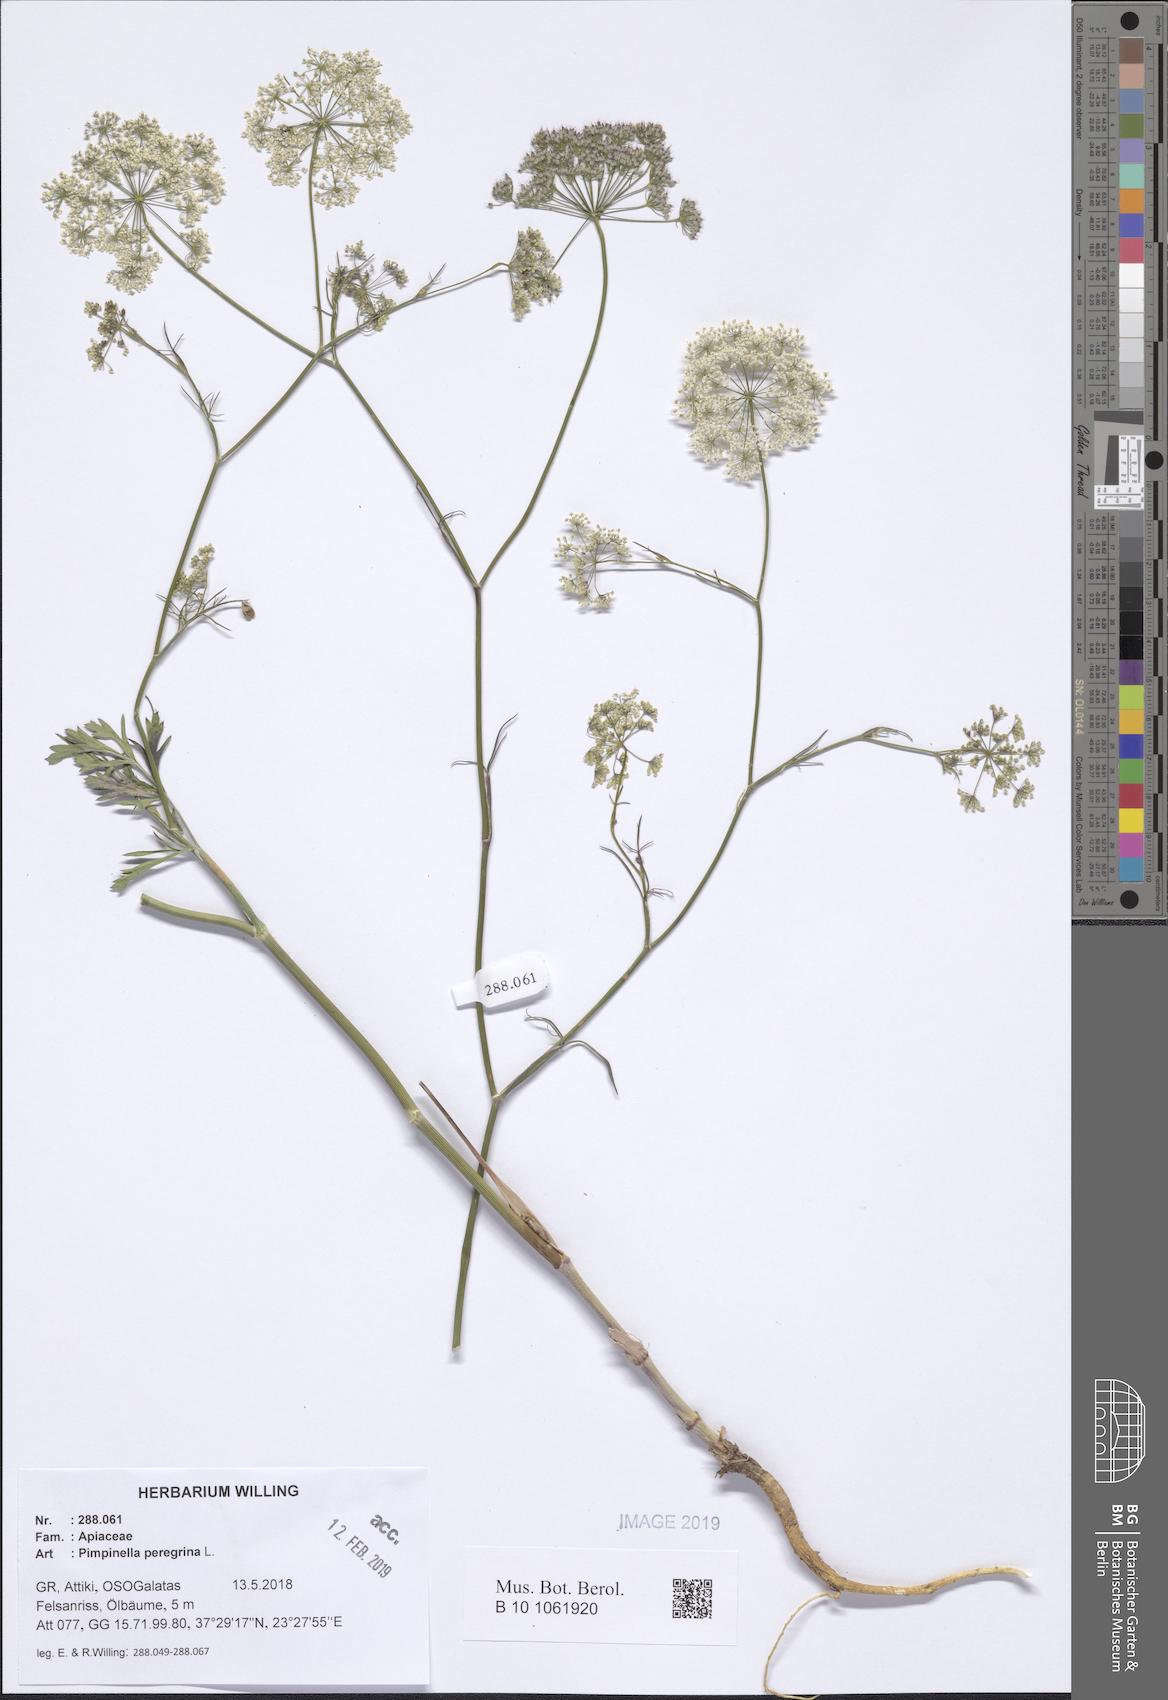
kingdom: Plantae
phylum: Tracheophyta
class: Magnoliopsida
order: Apiales
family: Apiaceae
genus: Pimpinella
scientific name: Pimpinella peregrina
